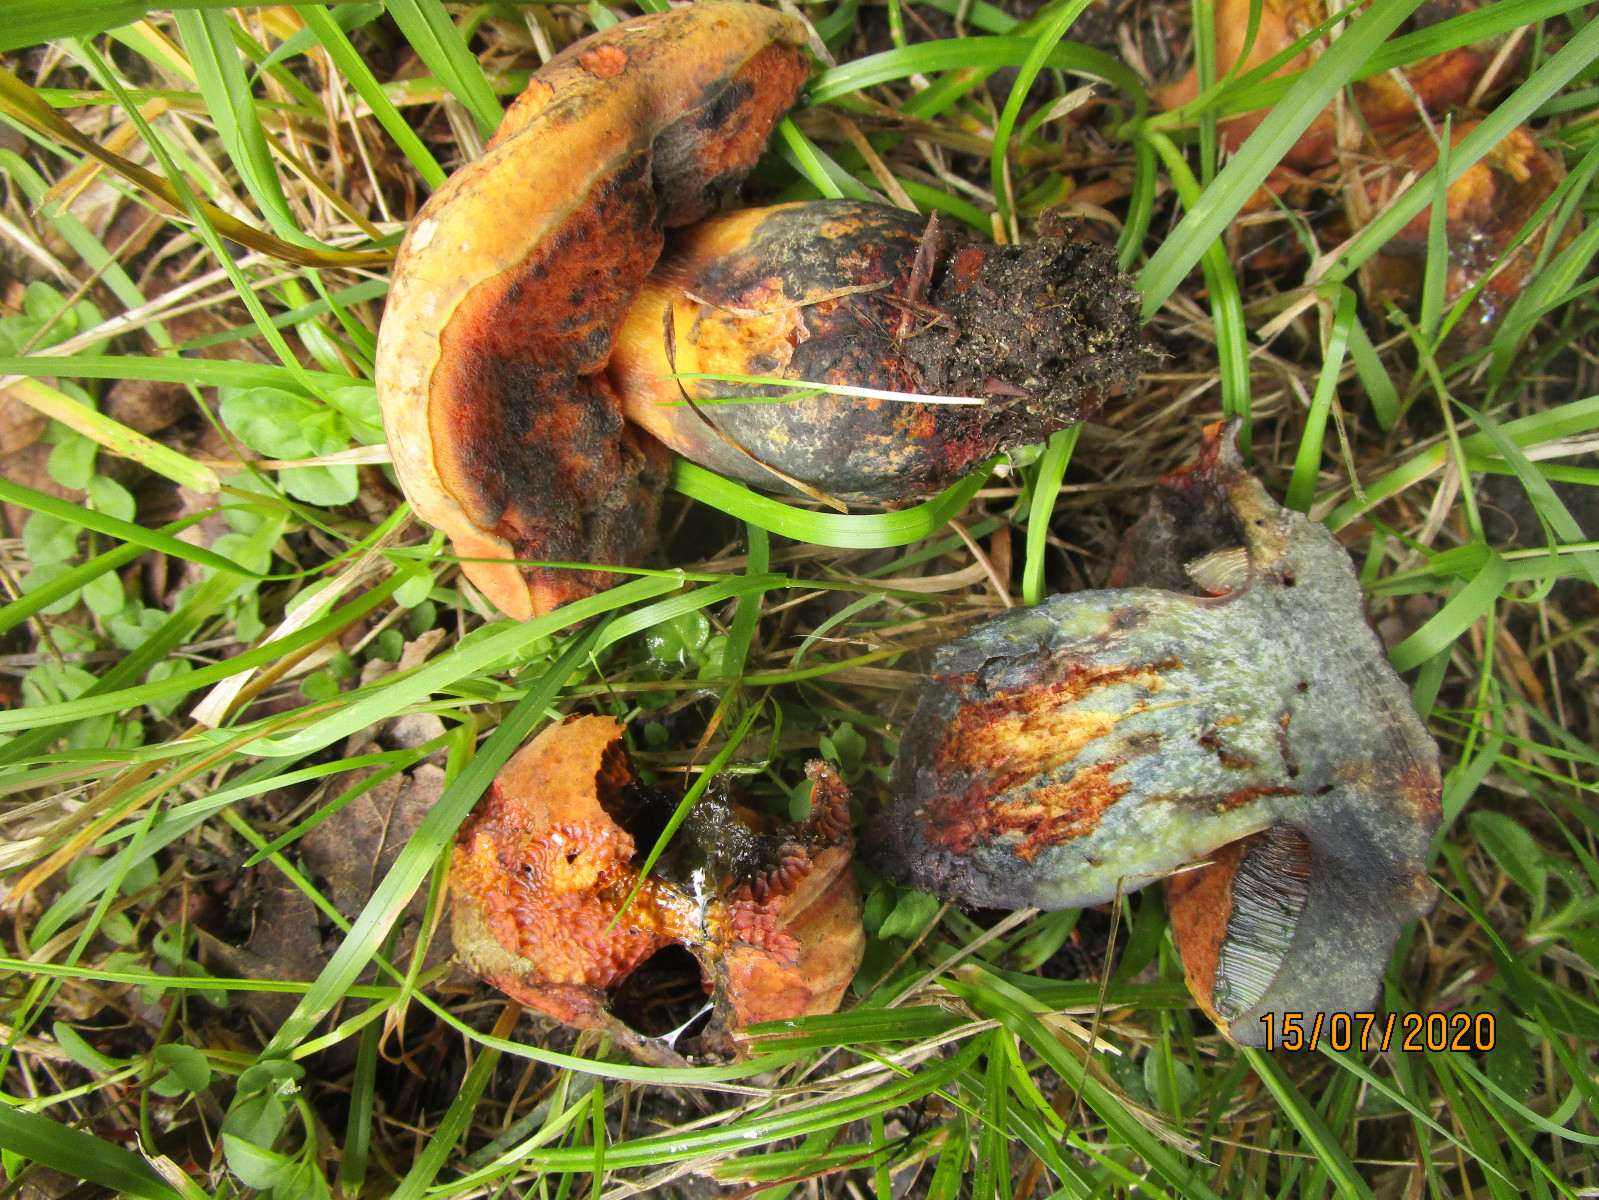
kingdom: Fungi
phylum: Basidiomycota
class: Agaricomycetes
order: Boletales
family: Boletaceae
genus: Suillellus
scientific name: Suillellus queletii
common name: glatstokket indigorørhat
